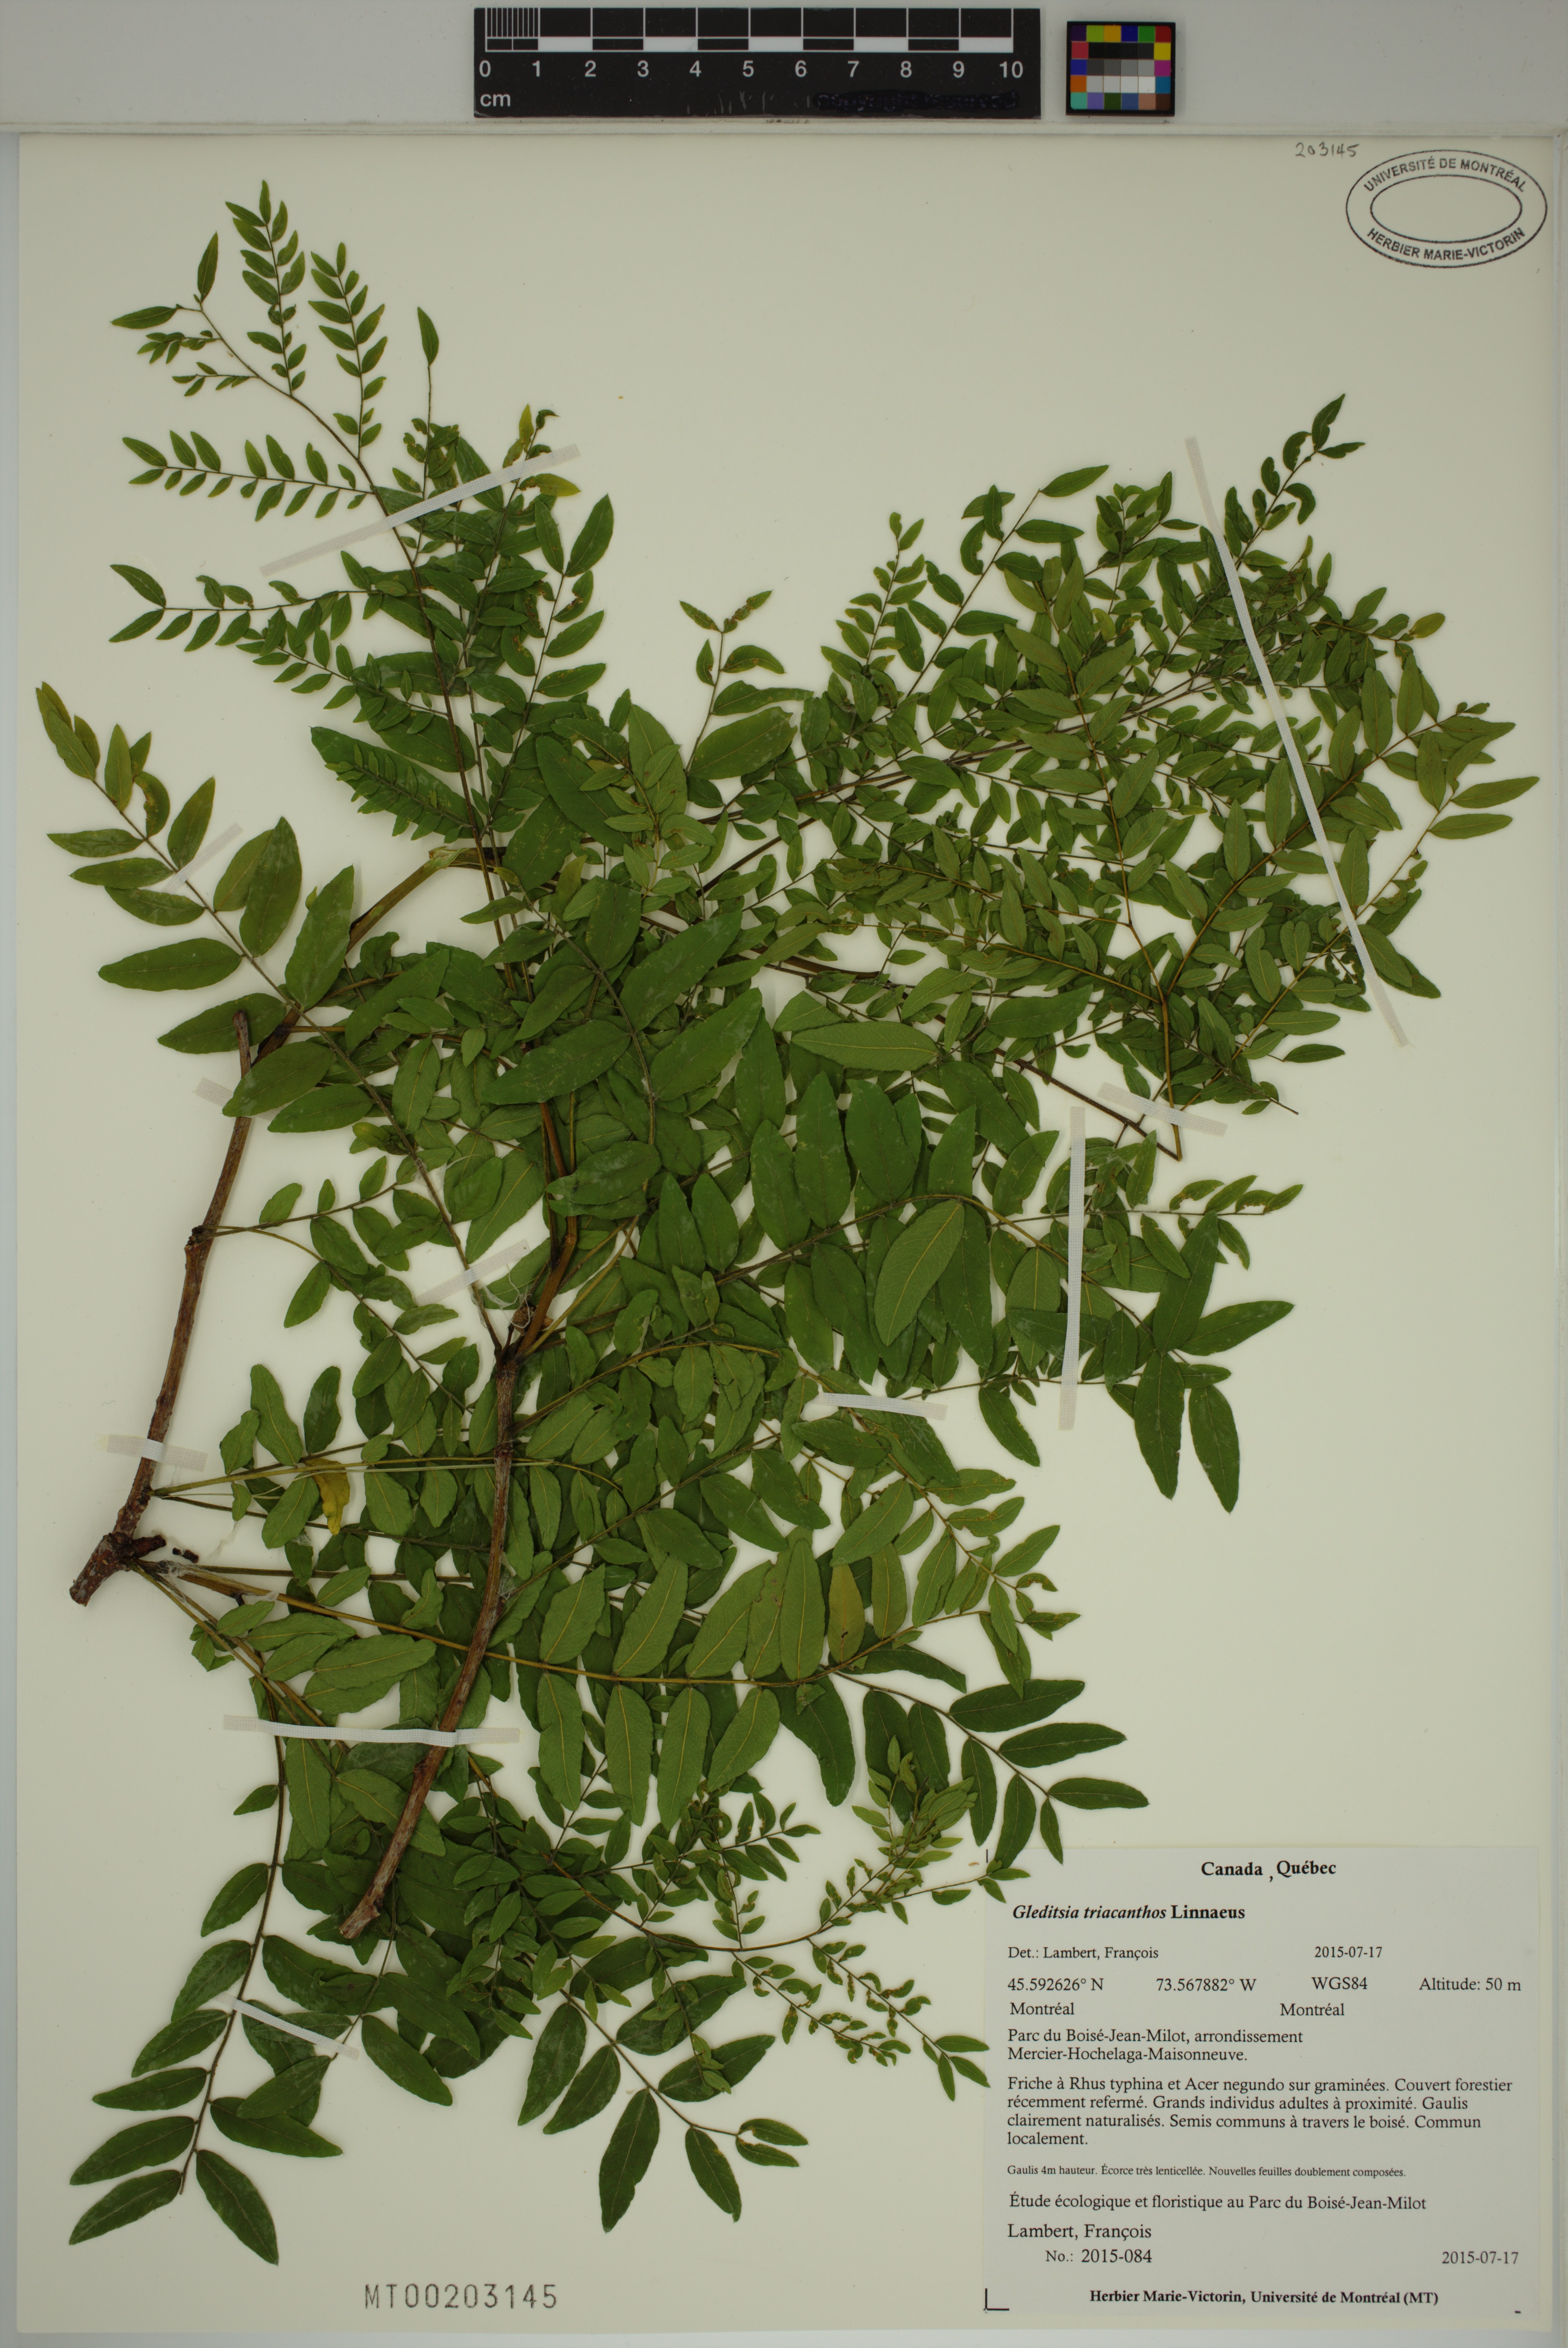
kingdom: Plantae
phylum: Tracheophyta
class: Magnoliopsida
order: Fabales
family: Fabaceae
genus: Gleditsia
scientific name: Gleditsia triacanthos
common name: Common honeylocust
